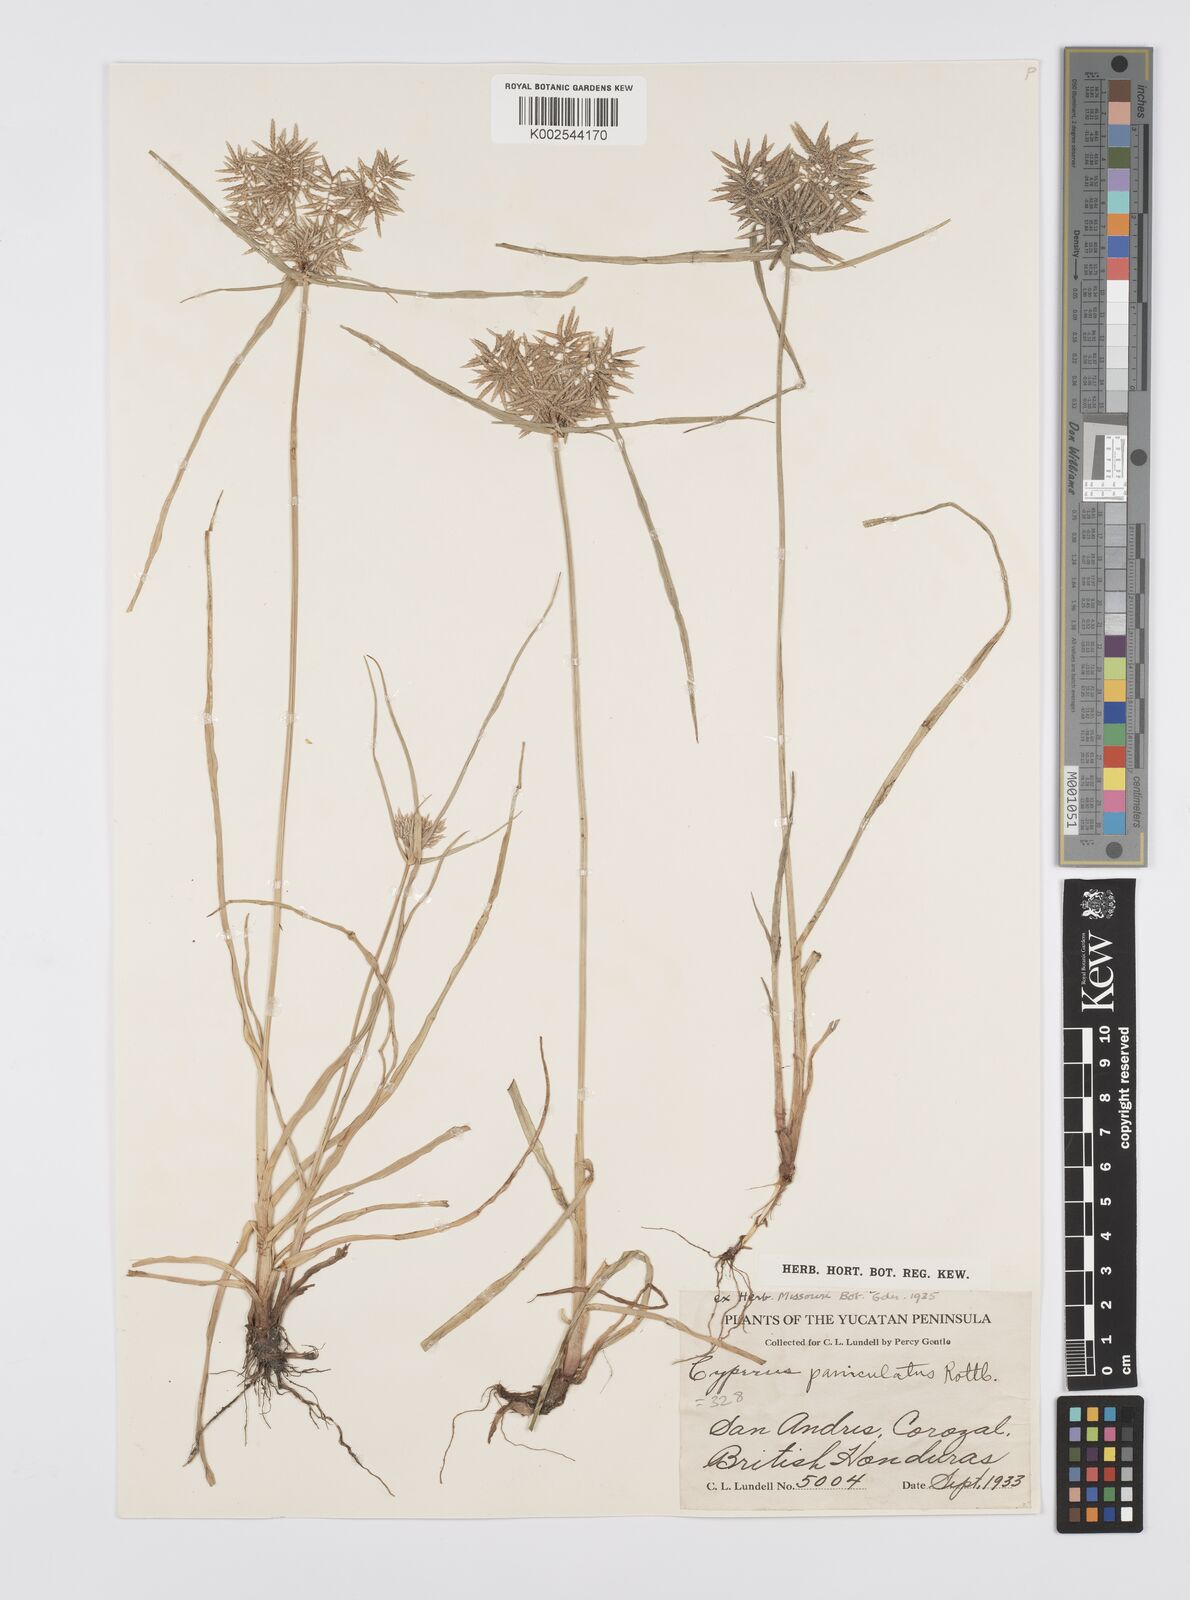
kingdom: Plantae
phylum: Tracheophyta
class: Liliopsida
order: Poales
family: Cyperaceae
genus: Cyperus
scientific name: Cyperus polystachyos
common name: Bunchy flat sedge
